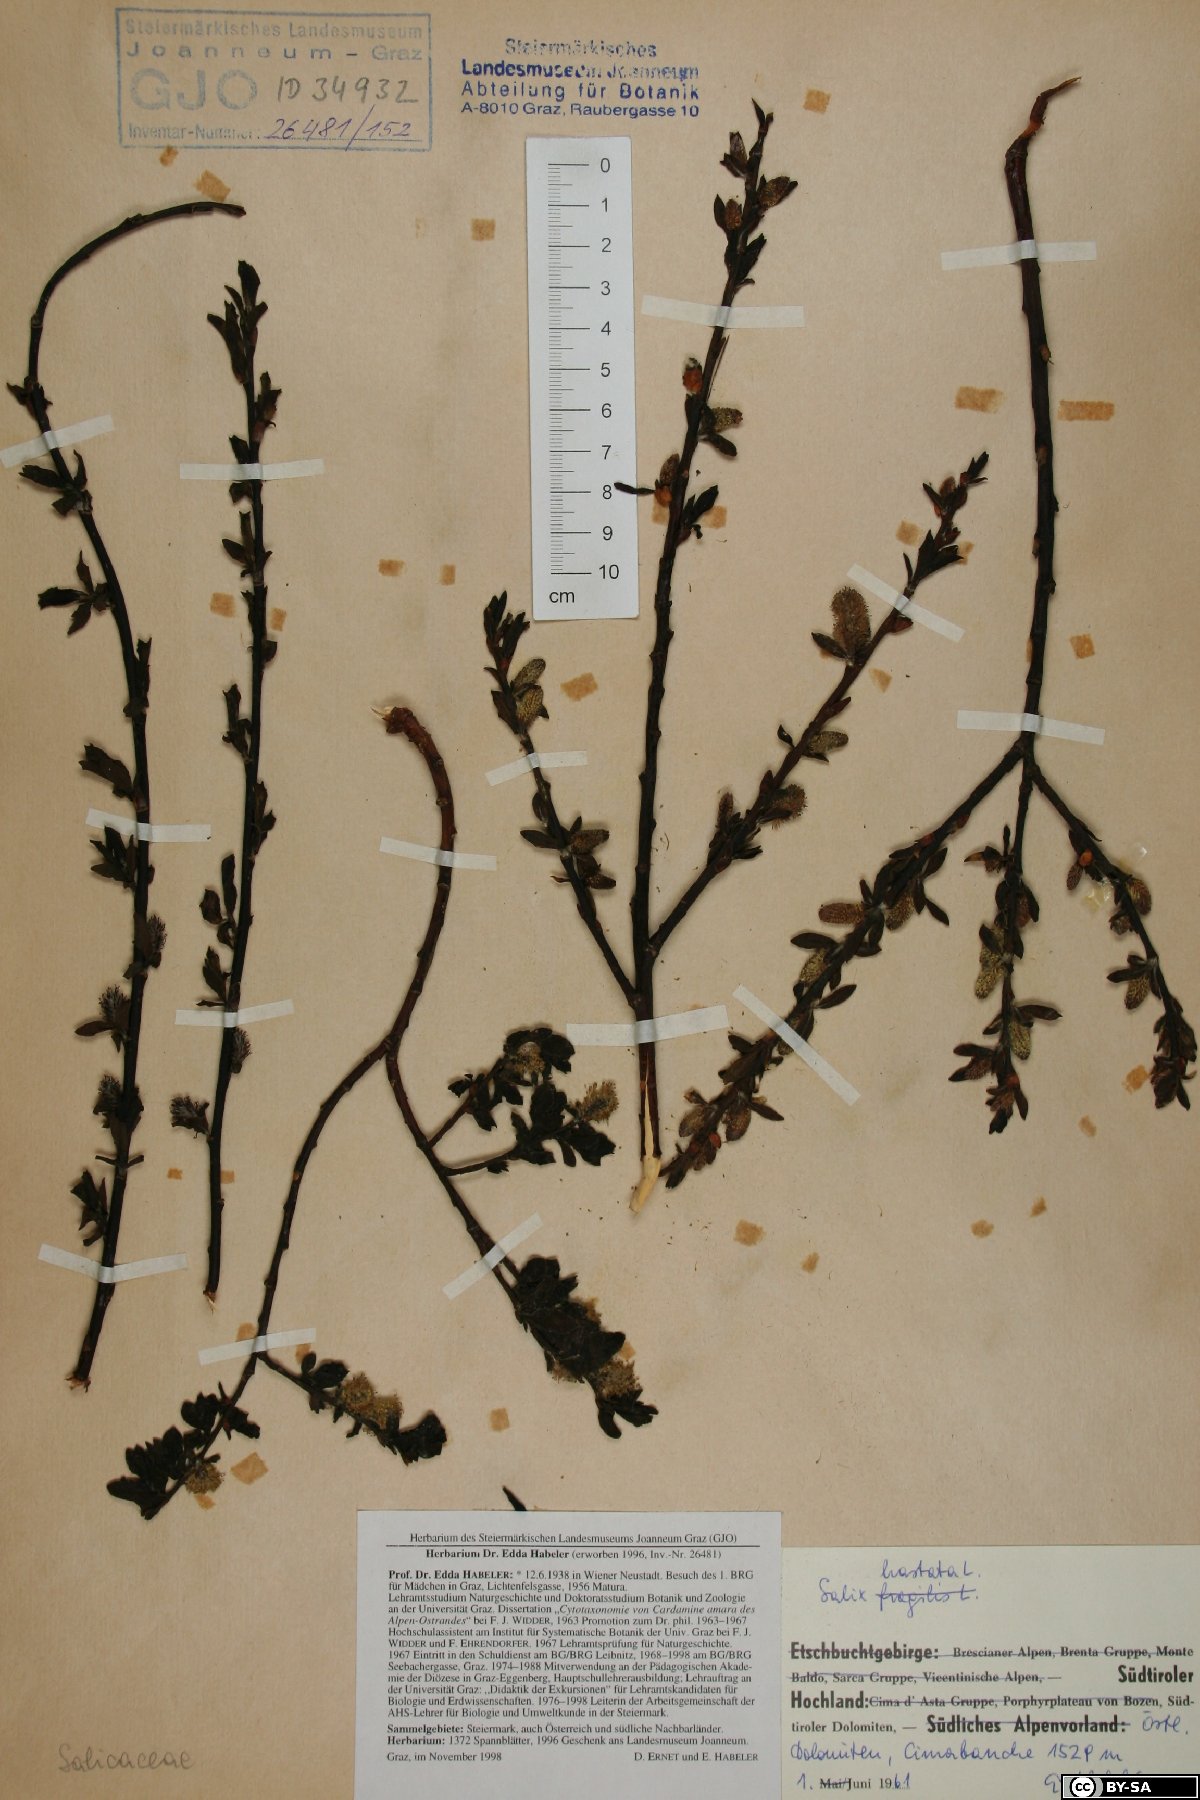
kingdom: Plantae
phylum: Tracheophyta
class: Magnoliopsida
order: Malpighiales
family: Salicaceae
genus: Salix
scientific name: Salix hastata
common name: Halberd willow
